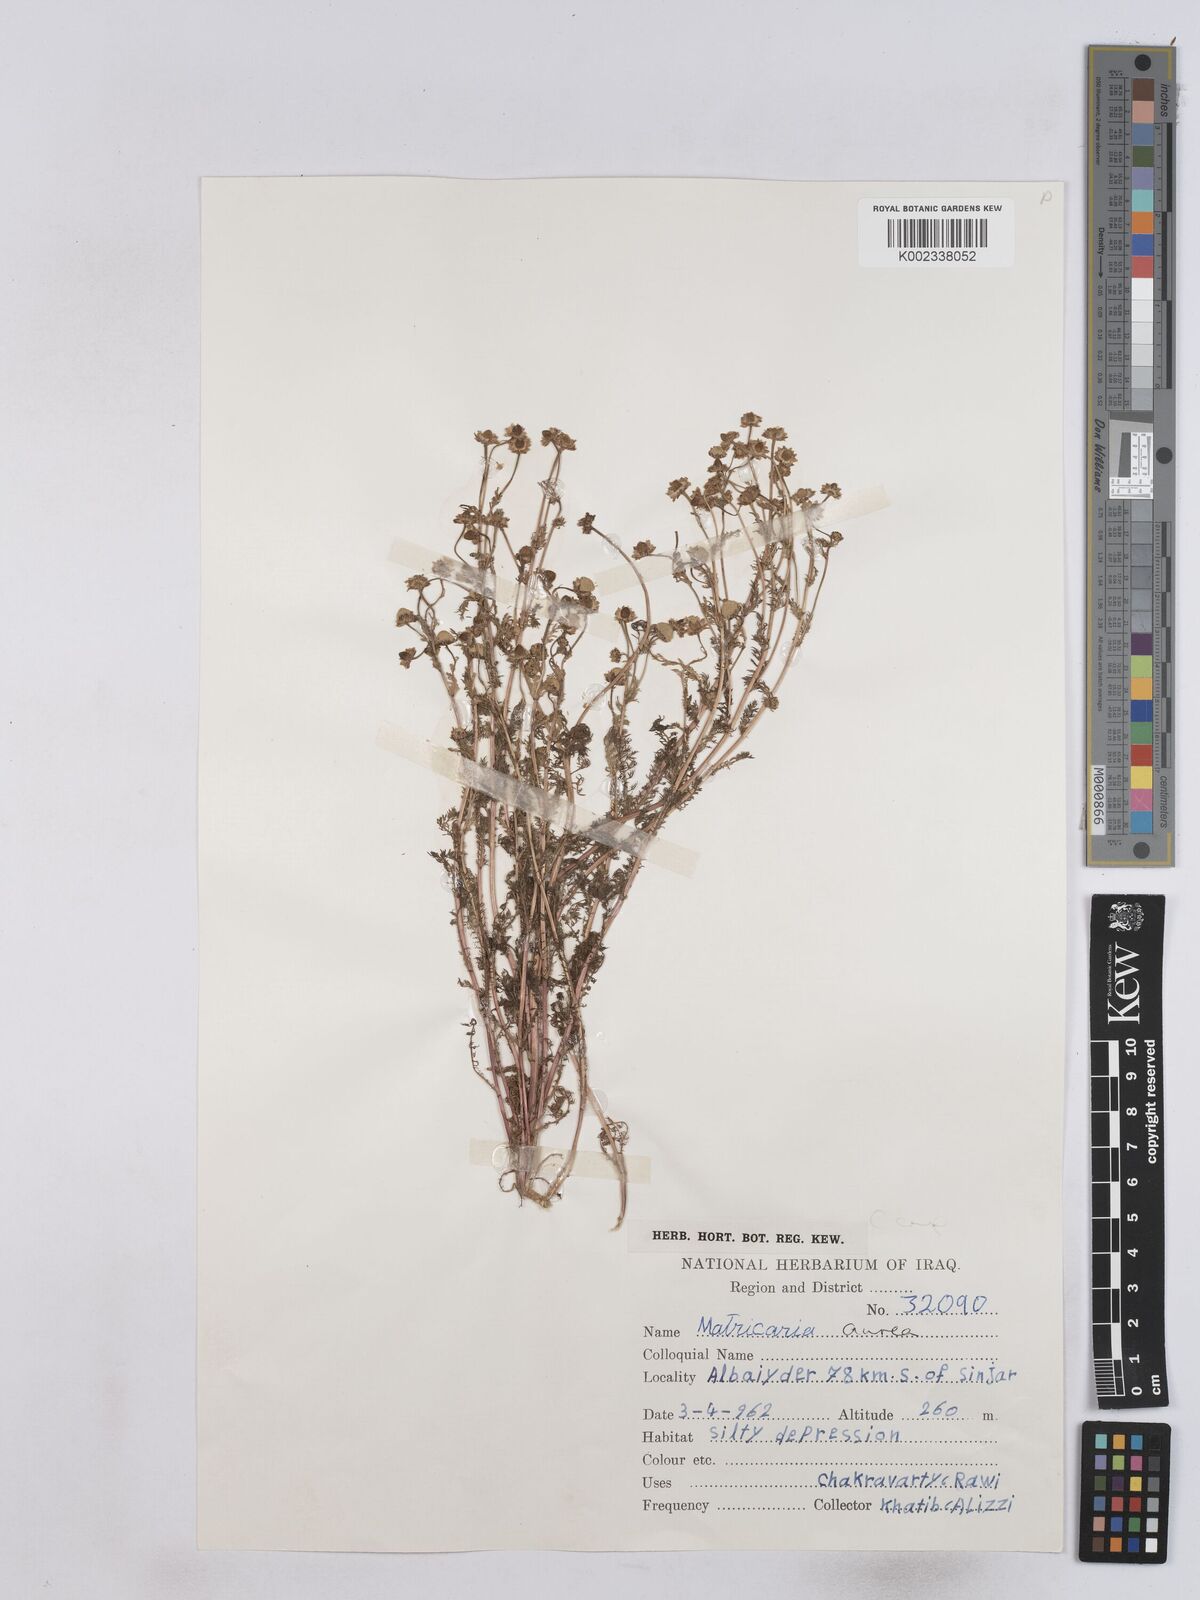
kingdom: Plantae
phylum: Tracheophyta
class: Magnoliopsida
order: Asterales
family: Asteraceae
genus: Matricaria
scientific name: Matricaria aurea
